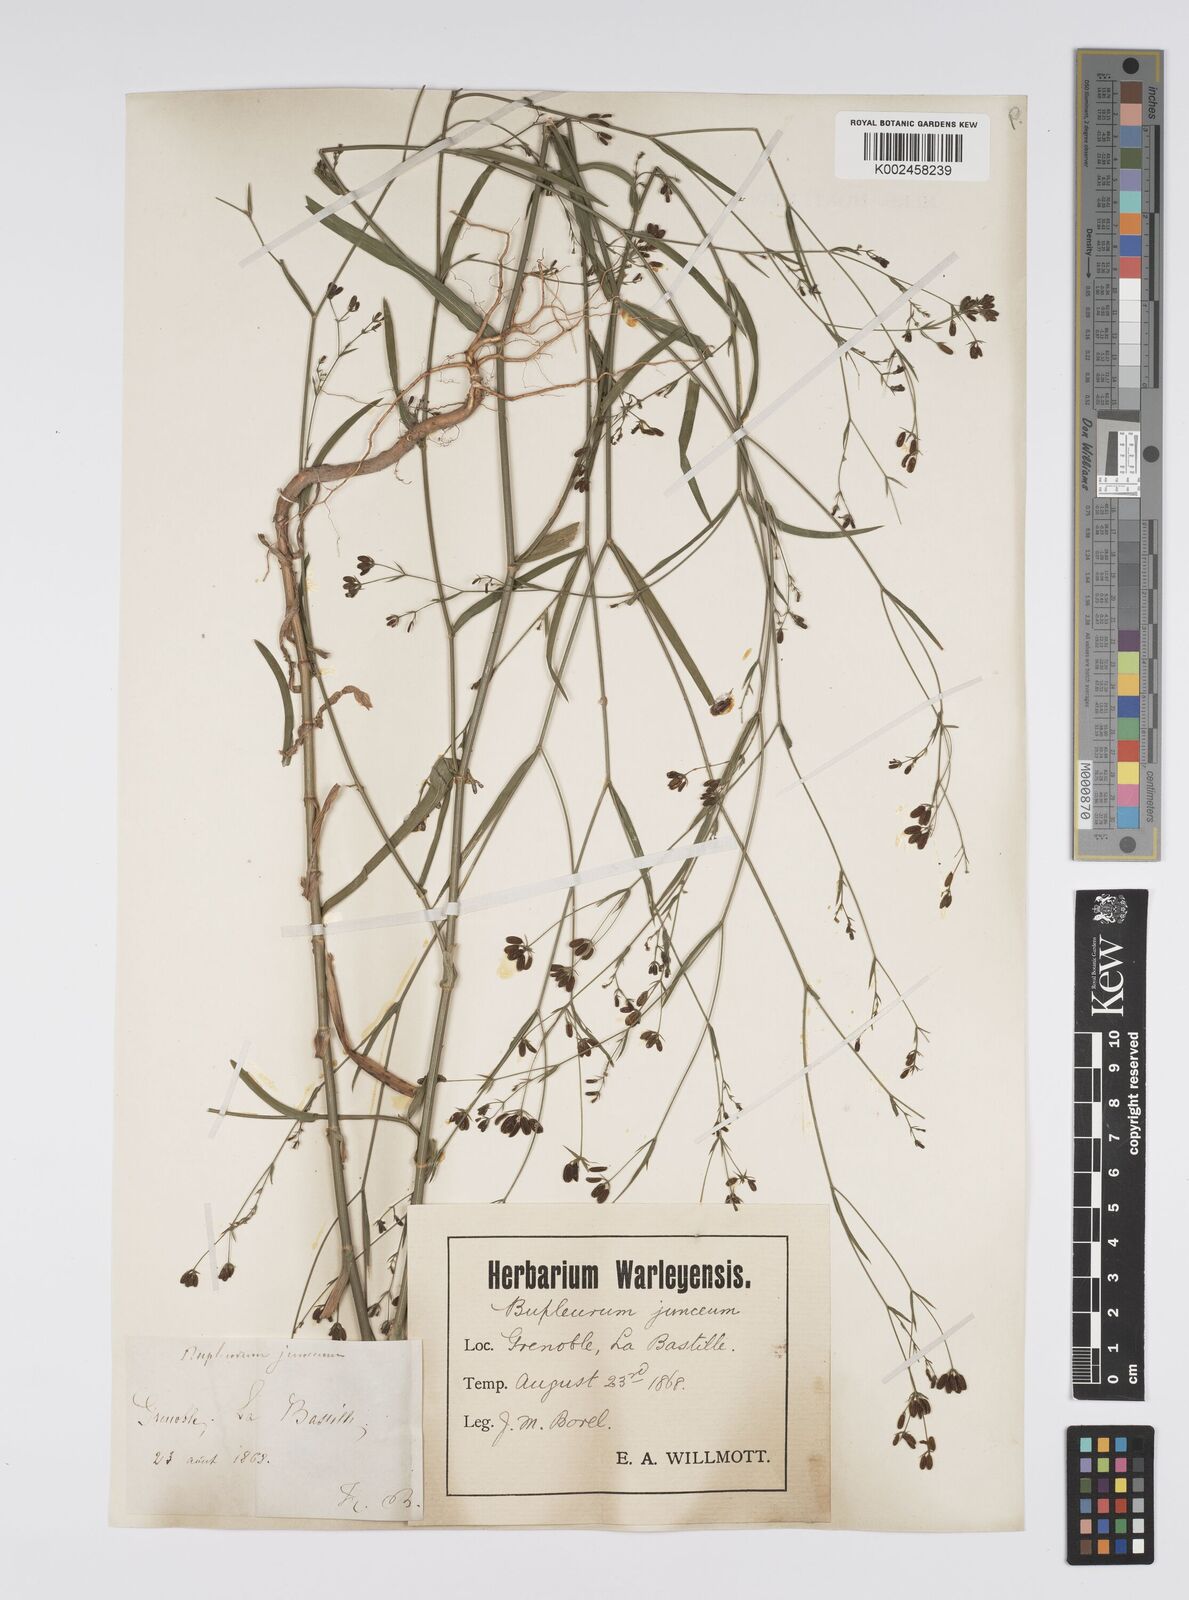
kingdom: Plantae
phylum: Tracheophyta
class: Magnoliopsida
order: Apiales
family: Apiaceae
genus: Bupleurum
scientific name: Bupleurum praealtum
